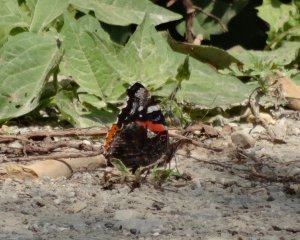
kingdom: Animalia
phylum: Arthropoda
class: Insecta
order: Lepidoptera
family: Nymphalidae
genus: Vanessa
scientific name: Vanessa atalanta
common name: Red Admiral
